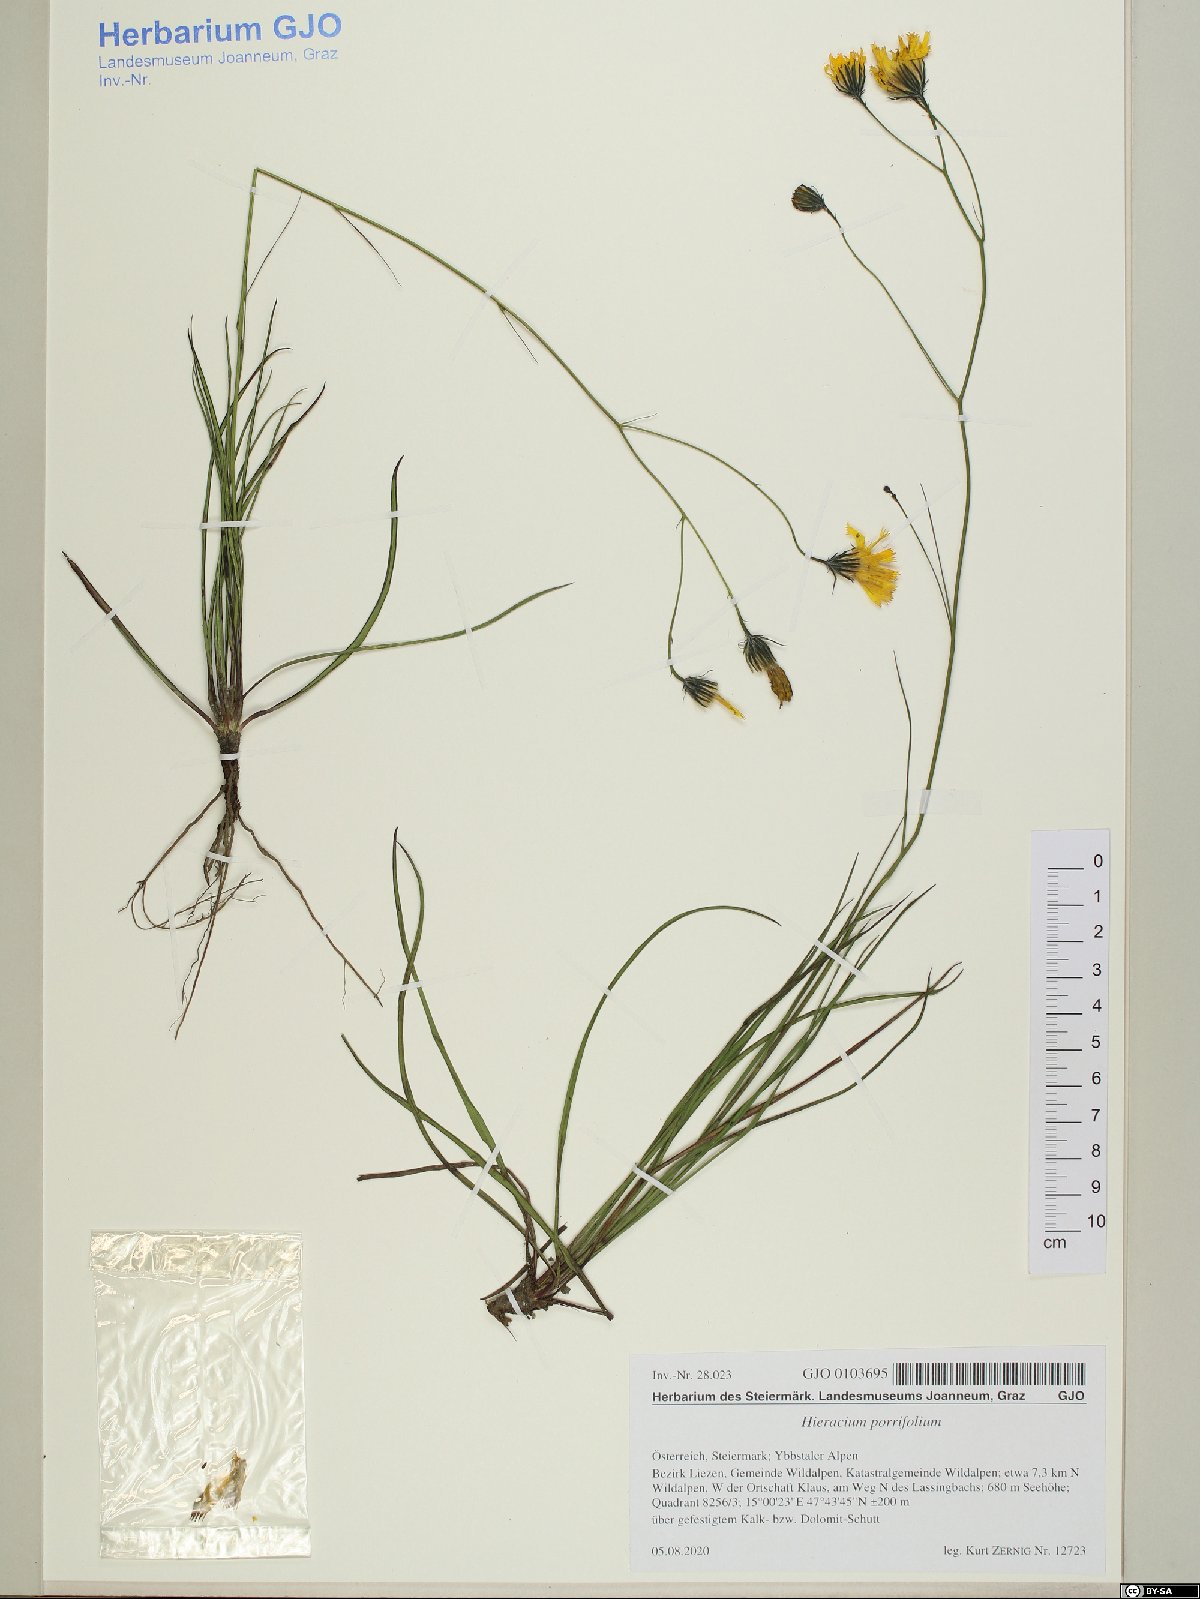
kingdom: Plantae
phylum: Tracheophyta
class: Magnoliopsida
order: Asterales
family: Asteraceae
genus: Hieracium
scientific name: Hieracium porrifolium
